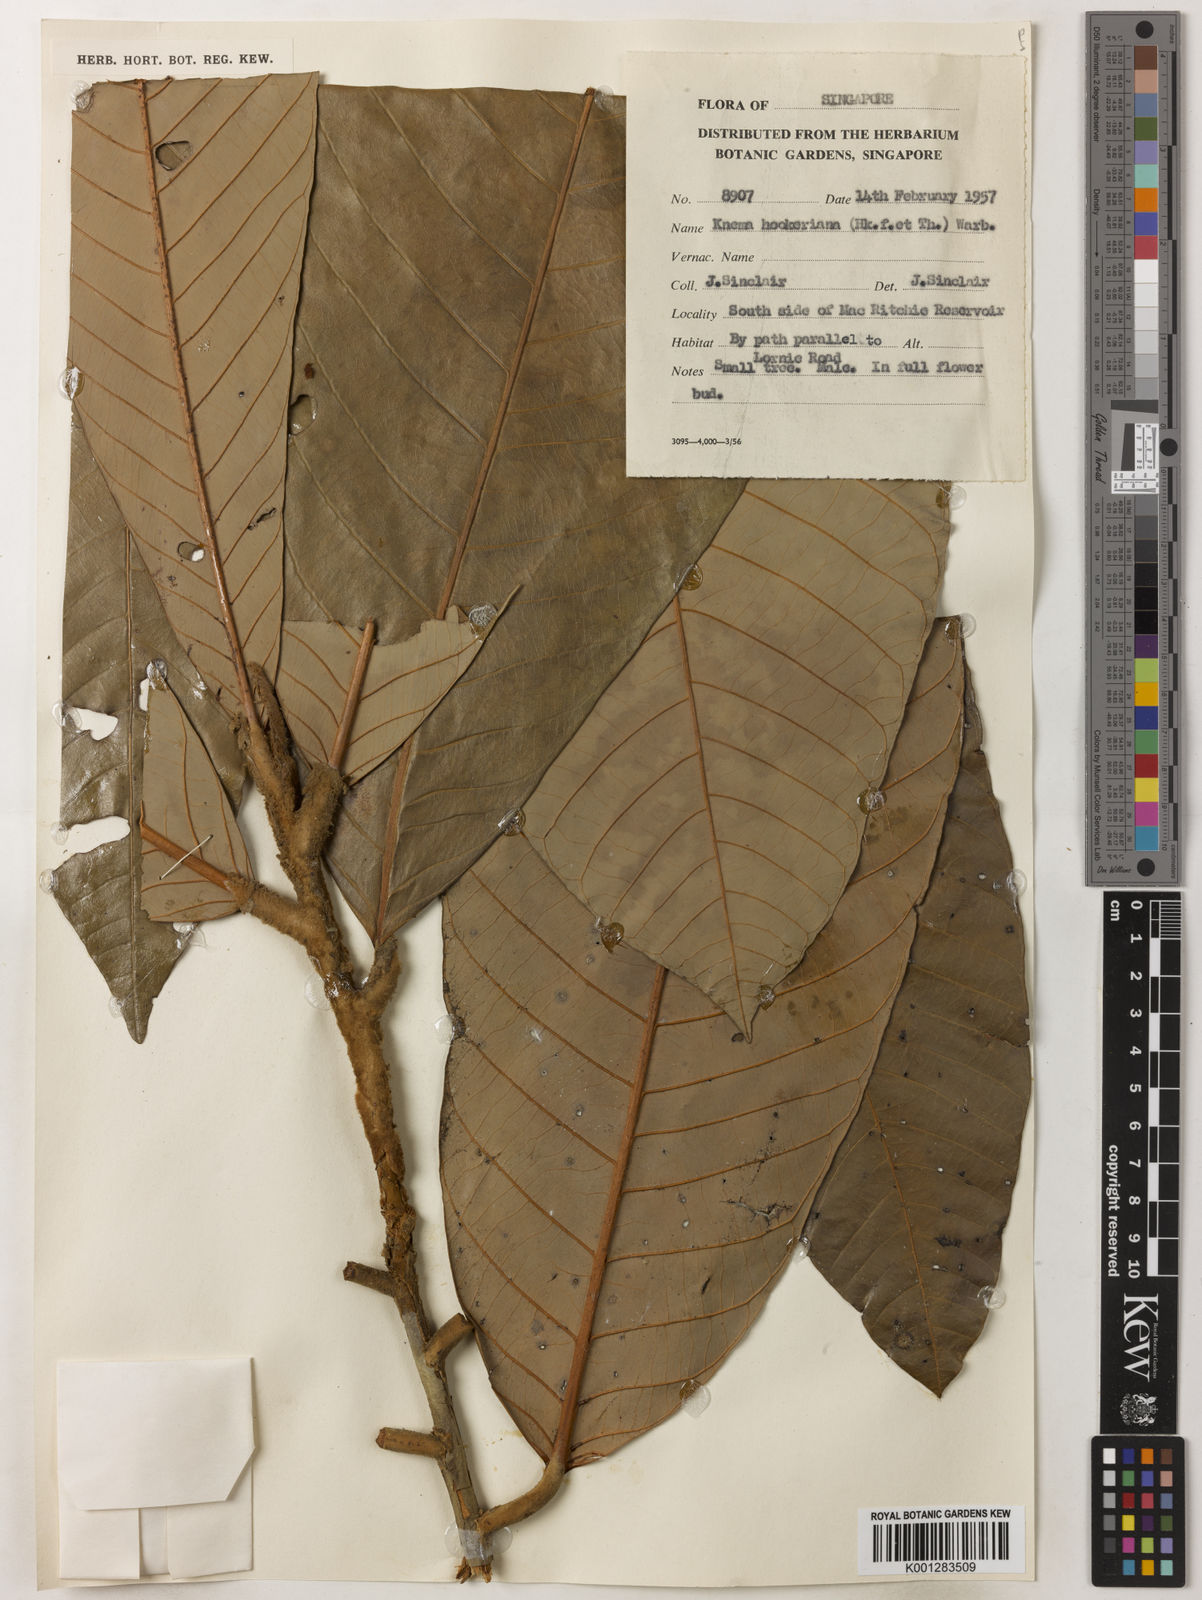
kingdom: Plantae
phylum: Tracheophyta
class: Magnoliopsida
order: Magnoliales
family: Myristicaceae
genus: Knema
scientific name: Knema hookeriana
